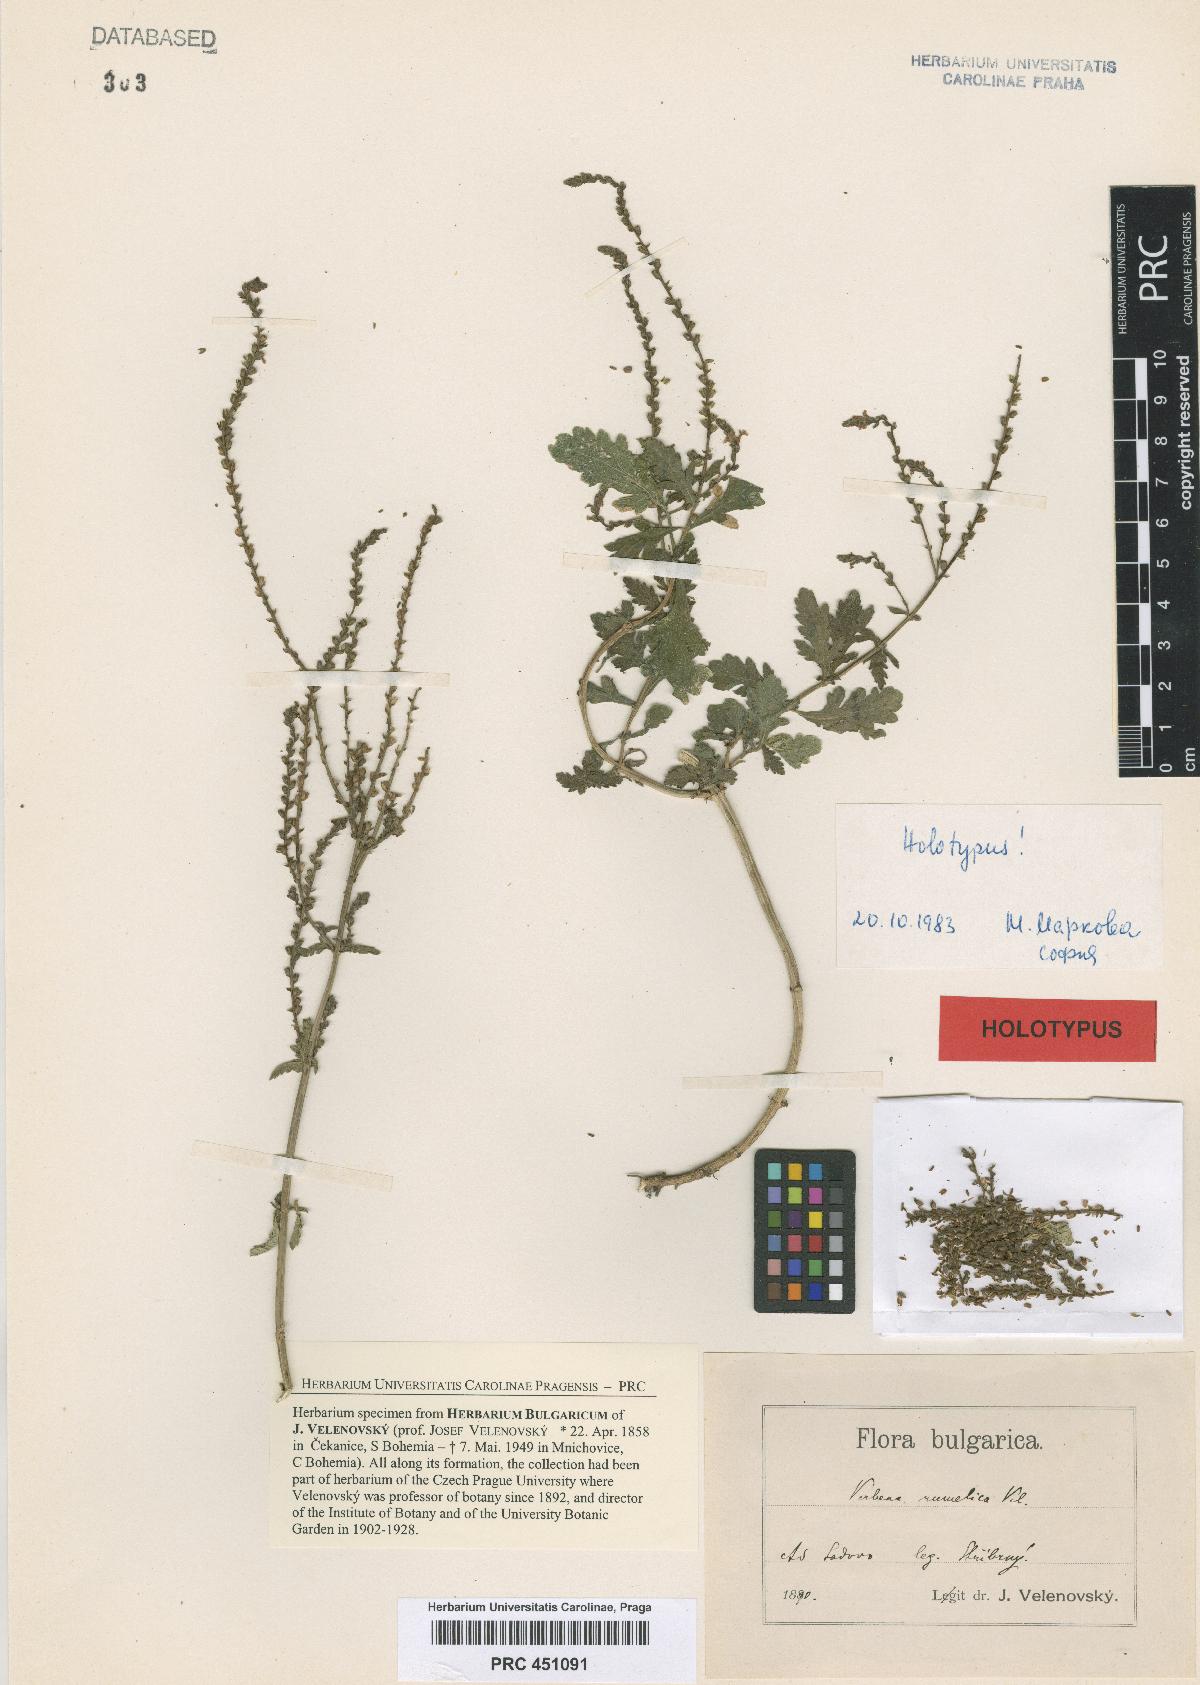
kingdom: Plantae
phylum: Tracheophyta
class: Magnoliopsida
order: Lamiales
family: Verbenaceae
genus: Verbena
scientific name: Verbena officinalis
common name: Vervain
